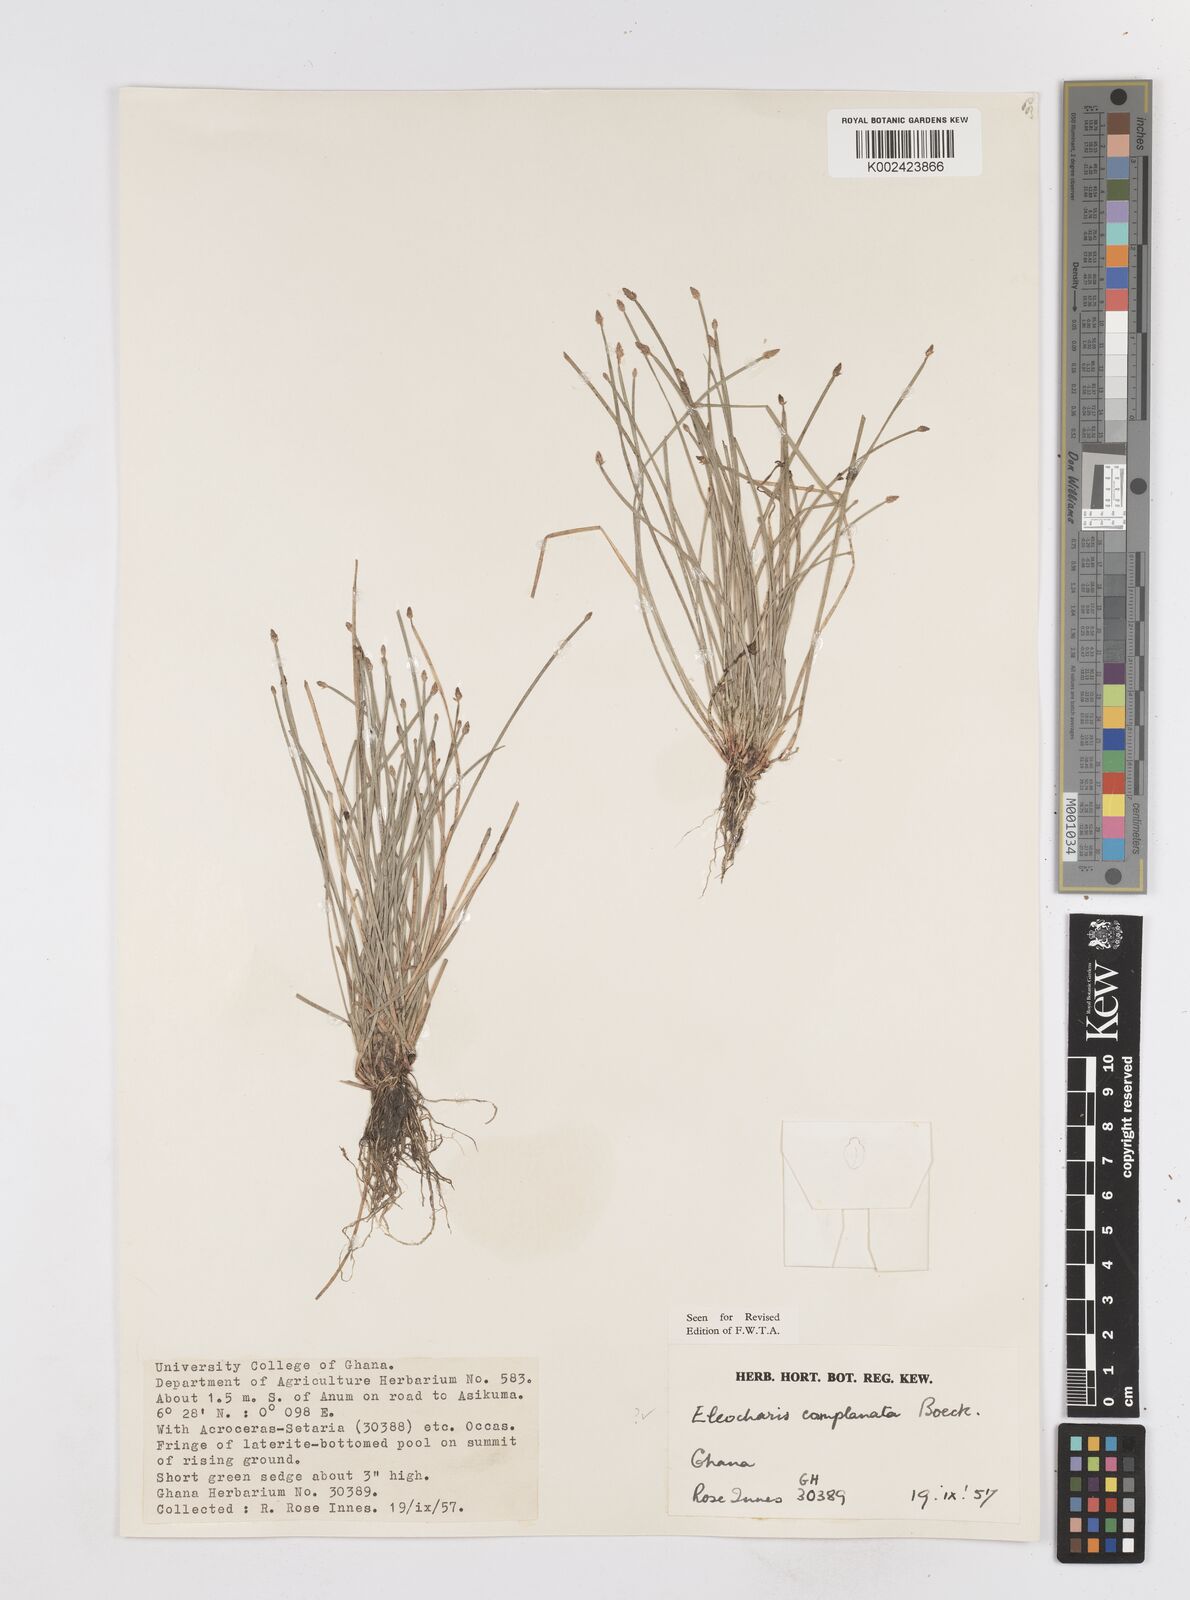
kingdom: Plantae
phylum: Tracheophyta
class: Liliopsida
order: Poales
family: Cyperaceae
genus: Eleocharis
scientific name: Eleocharis complanata
